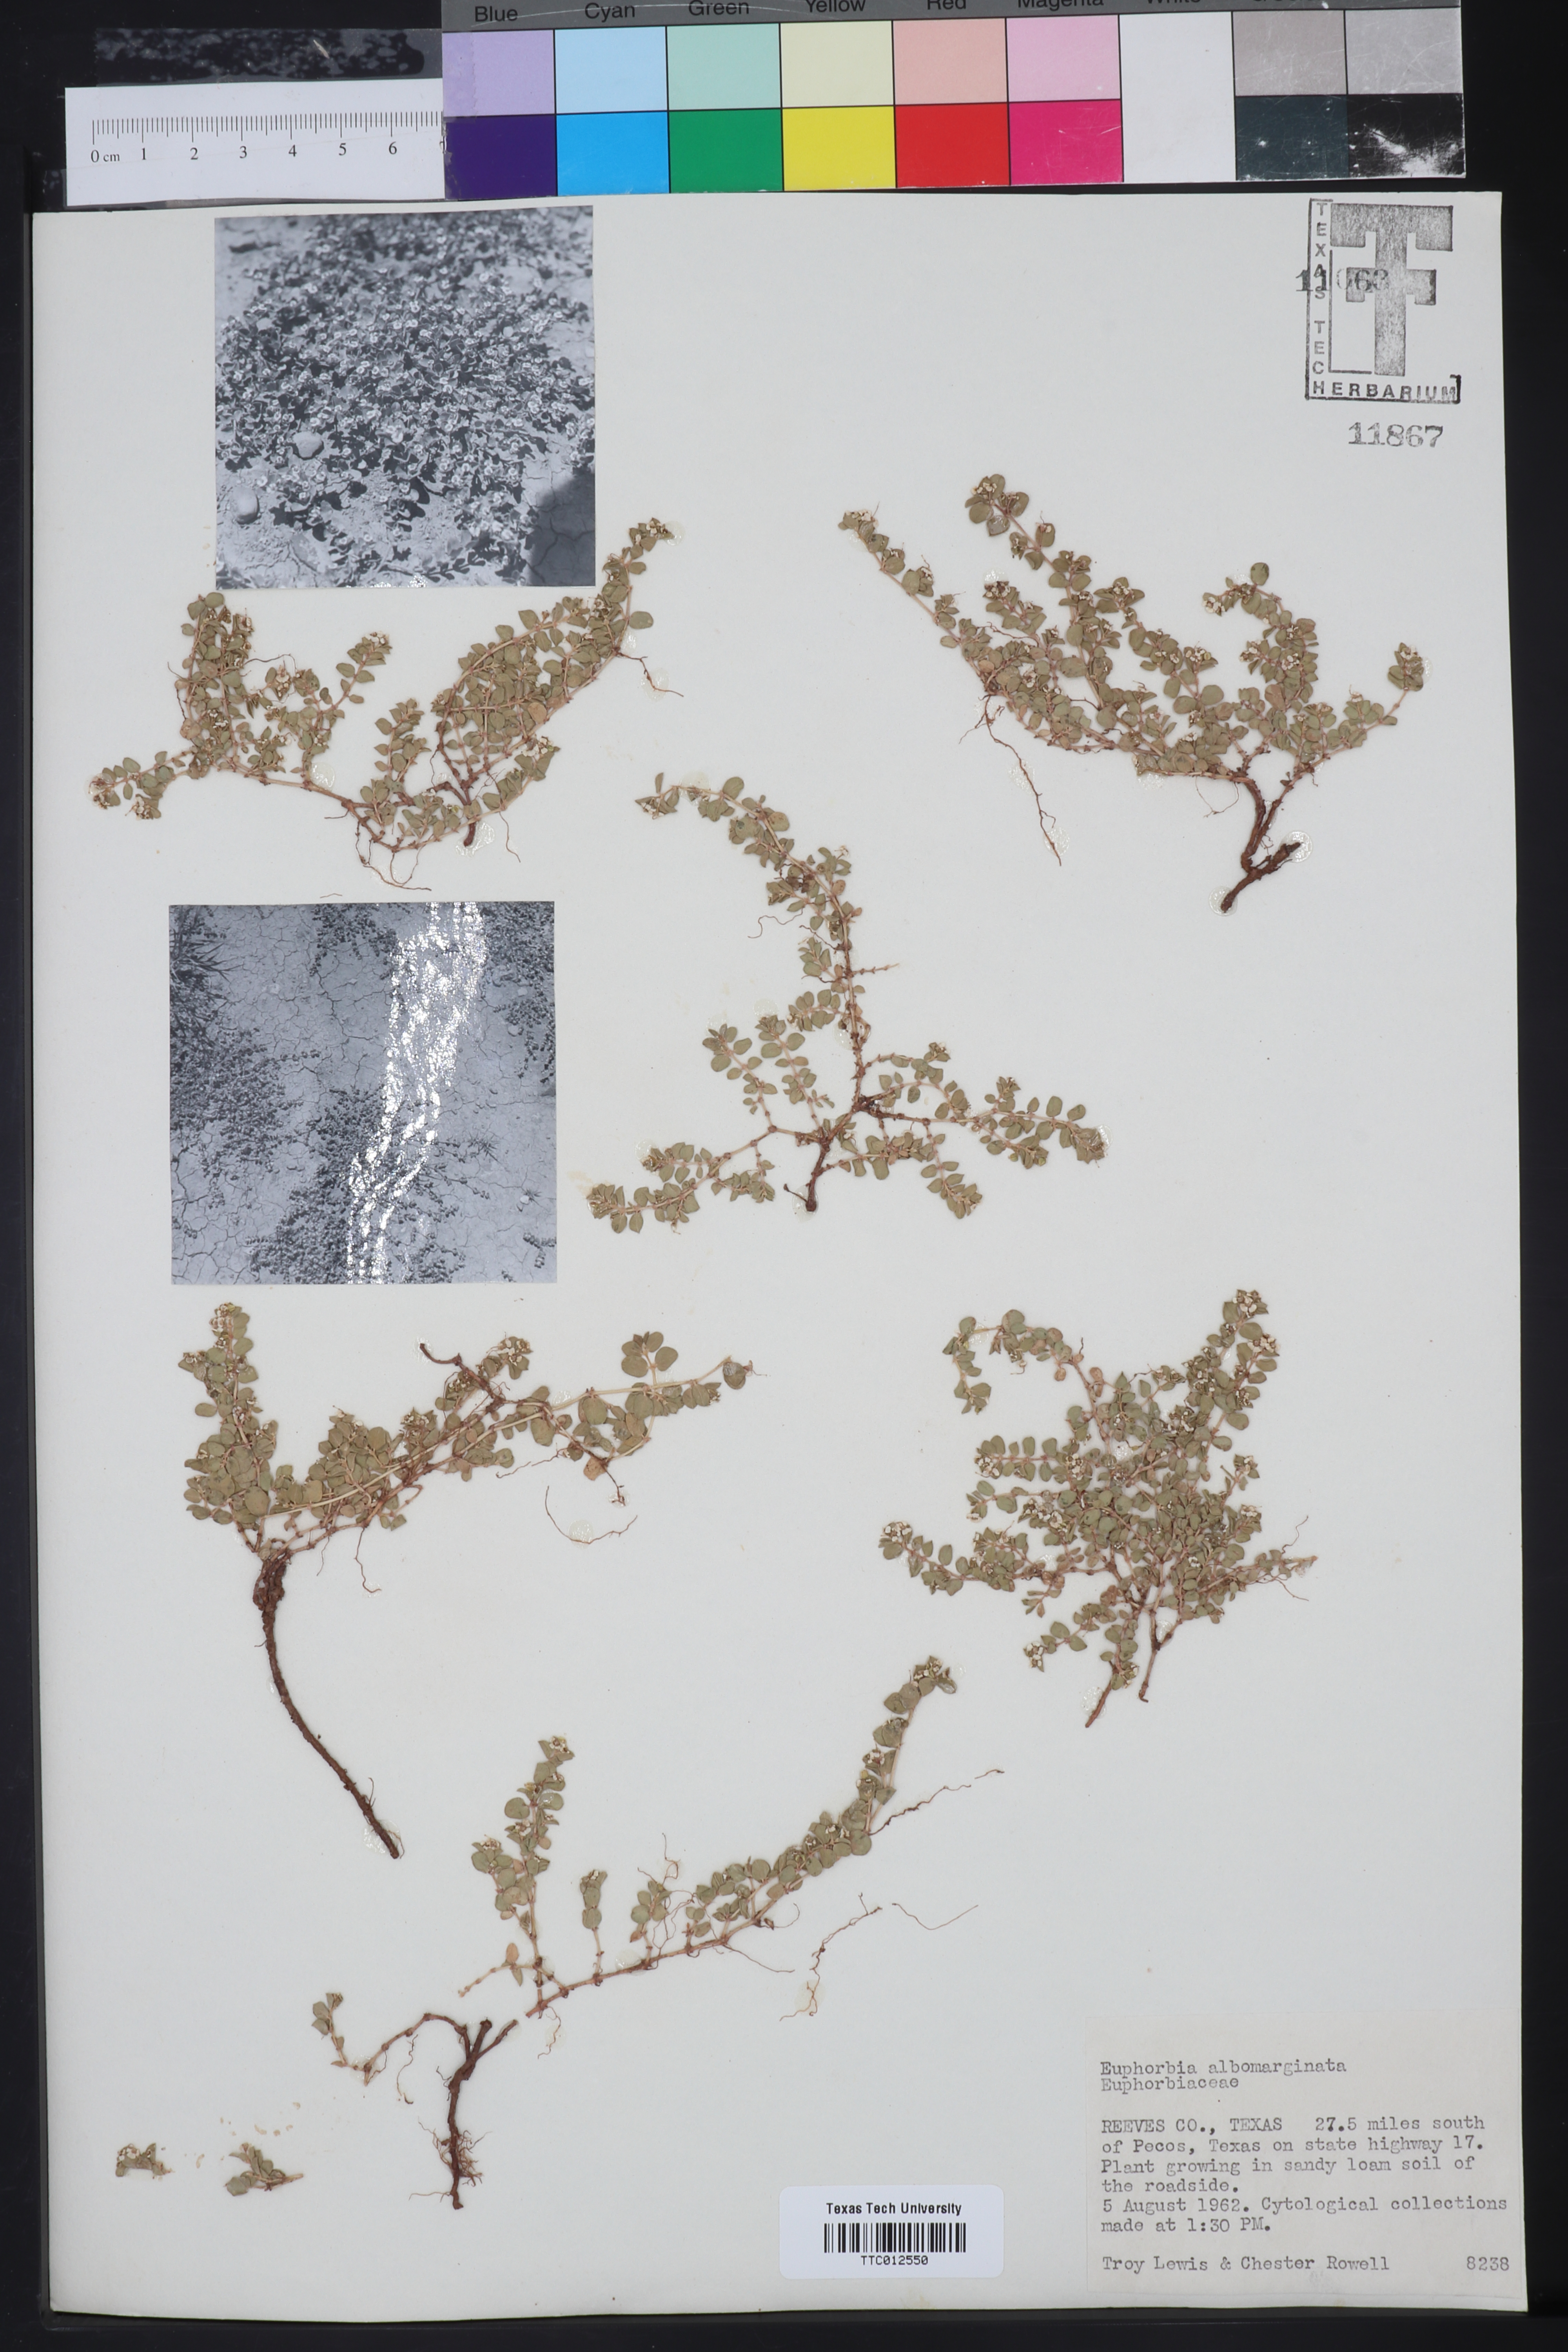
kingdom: Plantae
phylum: Tracheophyta
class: Magnoliopsida
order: Malpighiales
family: Euphorbiaceae
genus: Euphorbia
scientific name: Euphorbia albomarginata
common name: Whitemargin sandmat
